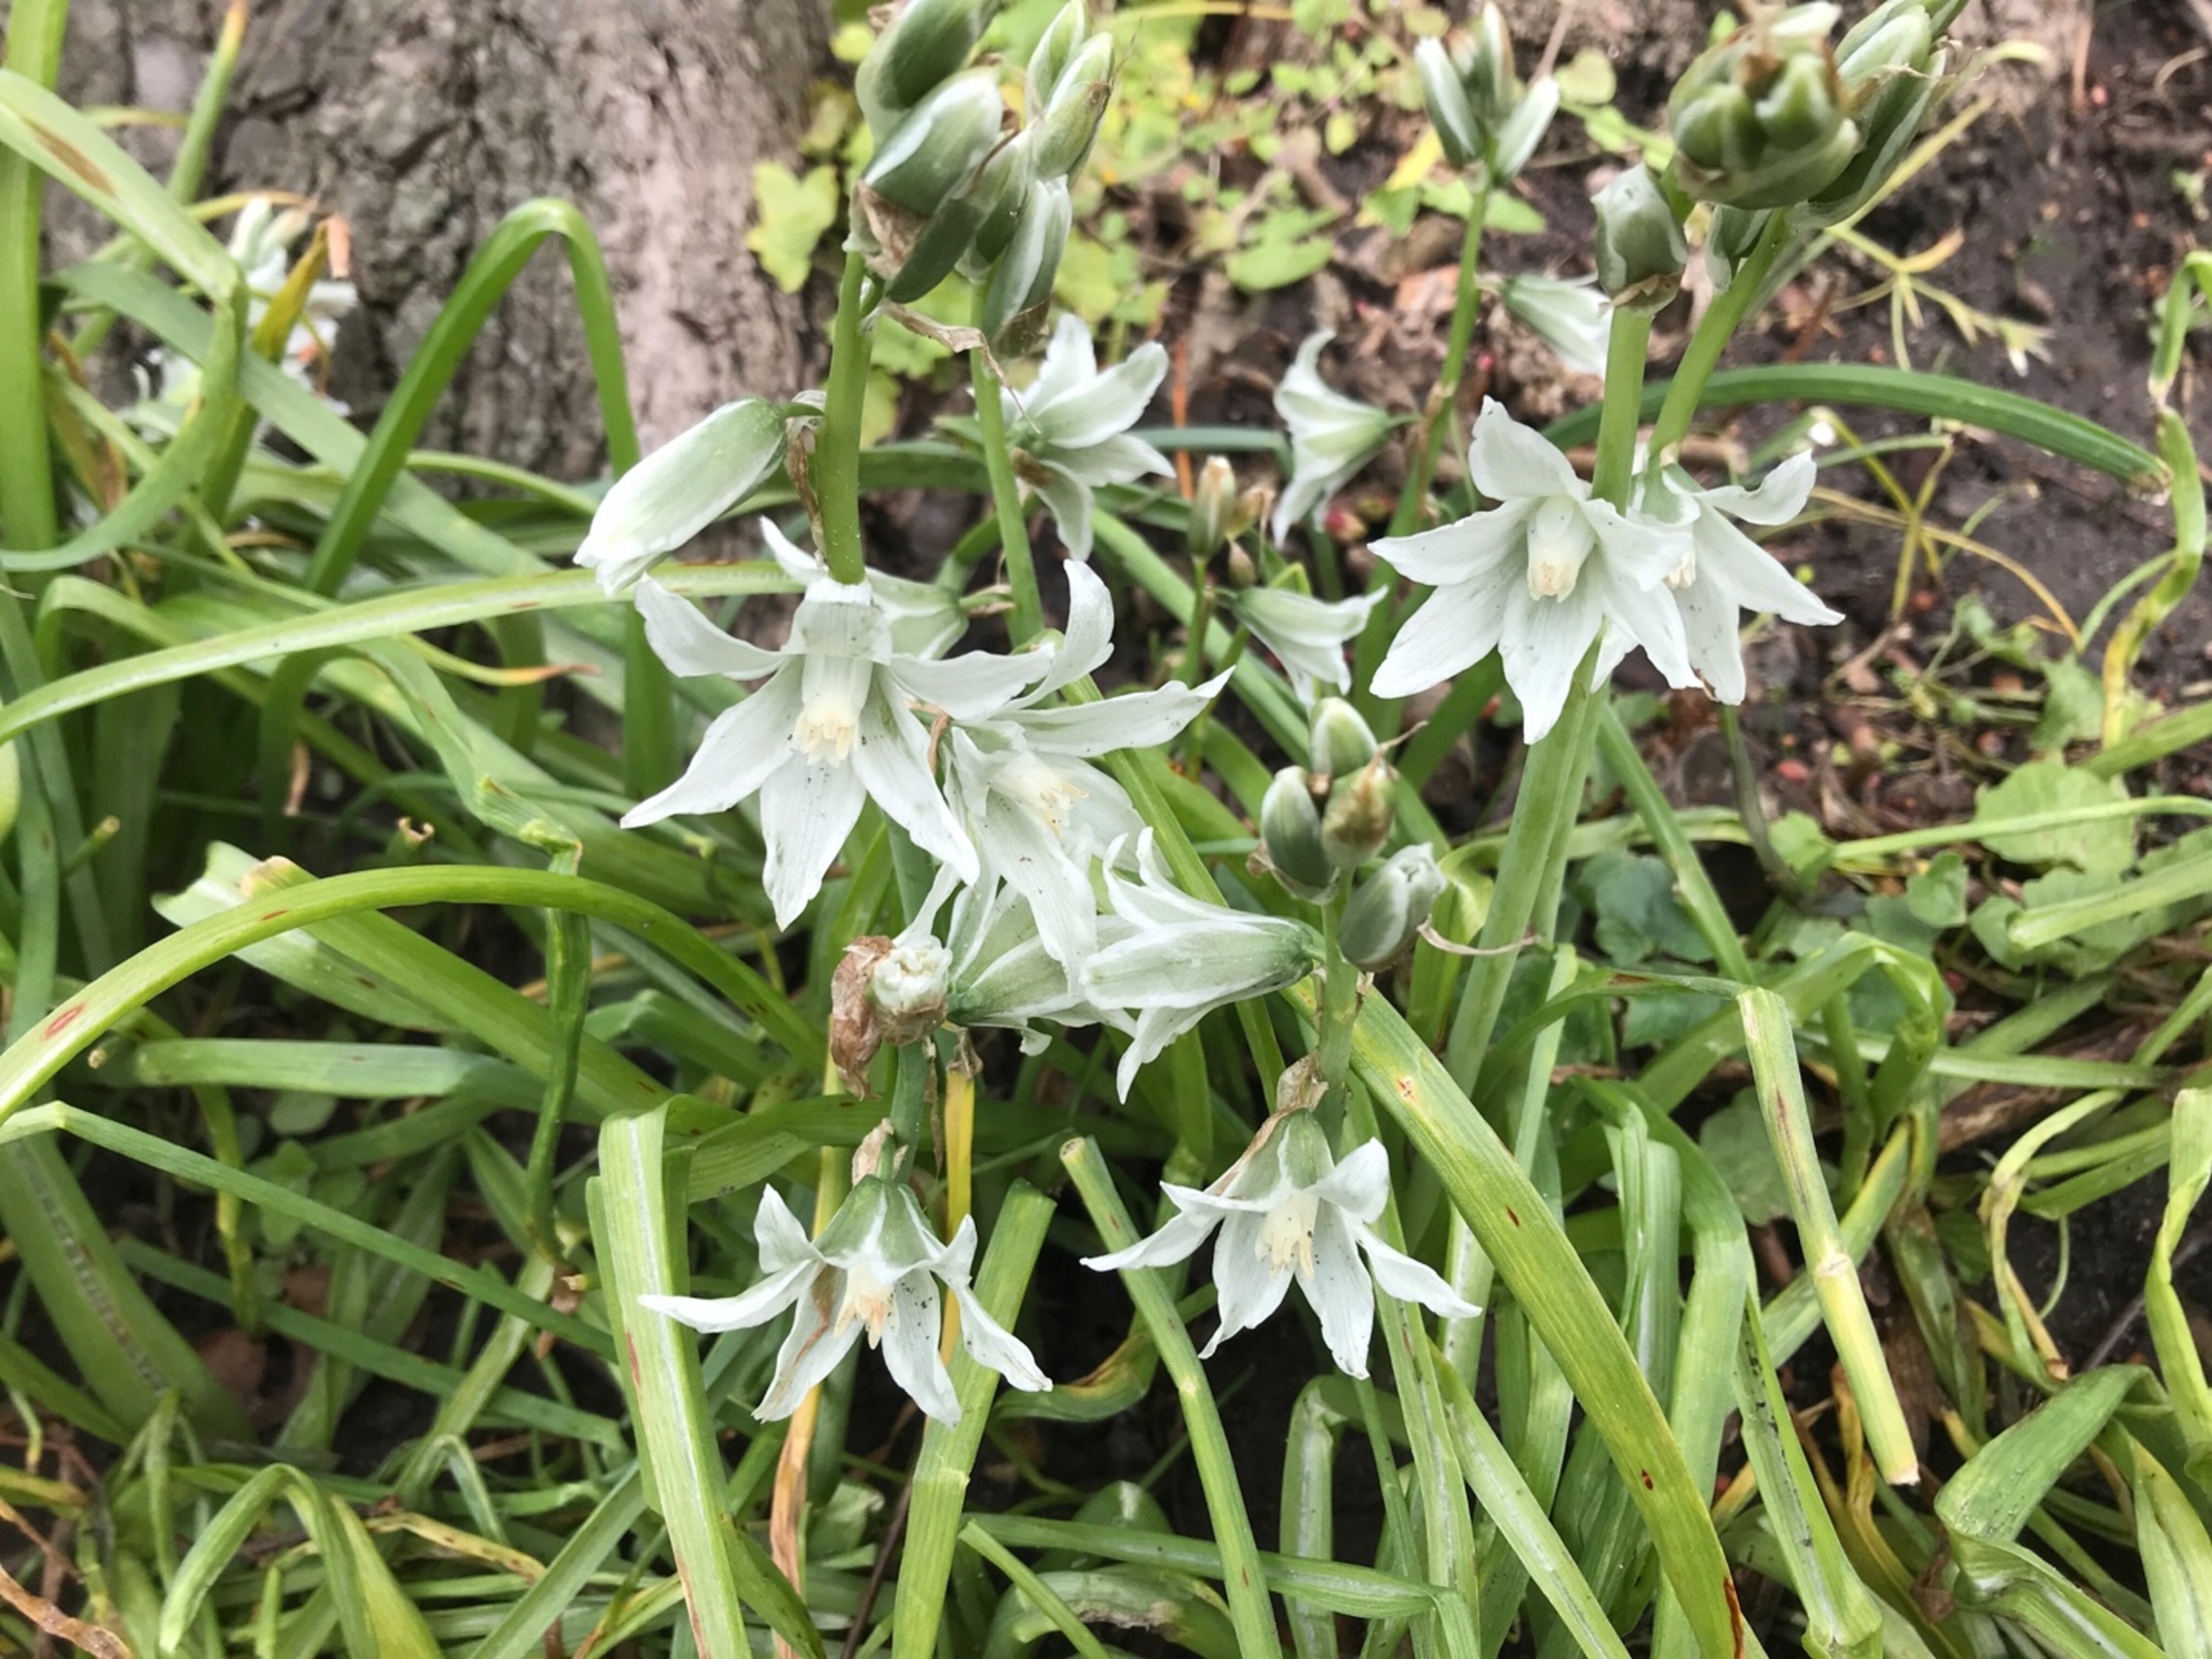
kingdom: Plantae
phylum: Tracheophyta
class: Liliopsida
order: Asparagales
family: Asparagaceae
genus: Ornithogalum
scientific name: Ornithogalum nutans
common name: Nikkende fuglemælk
